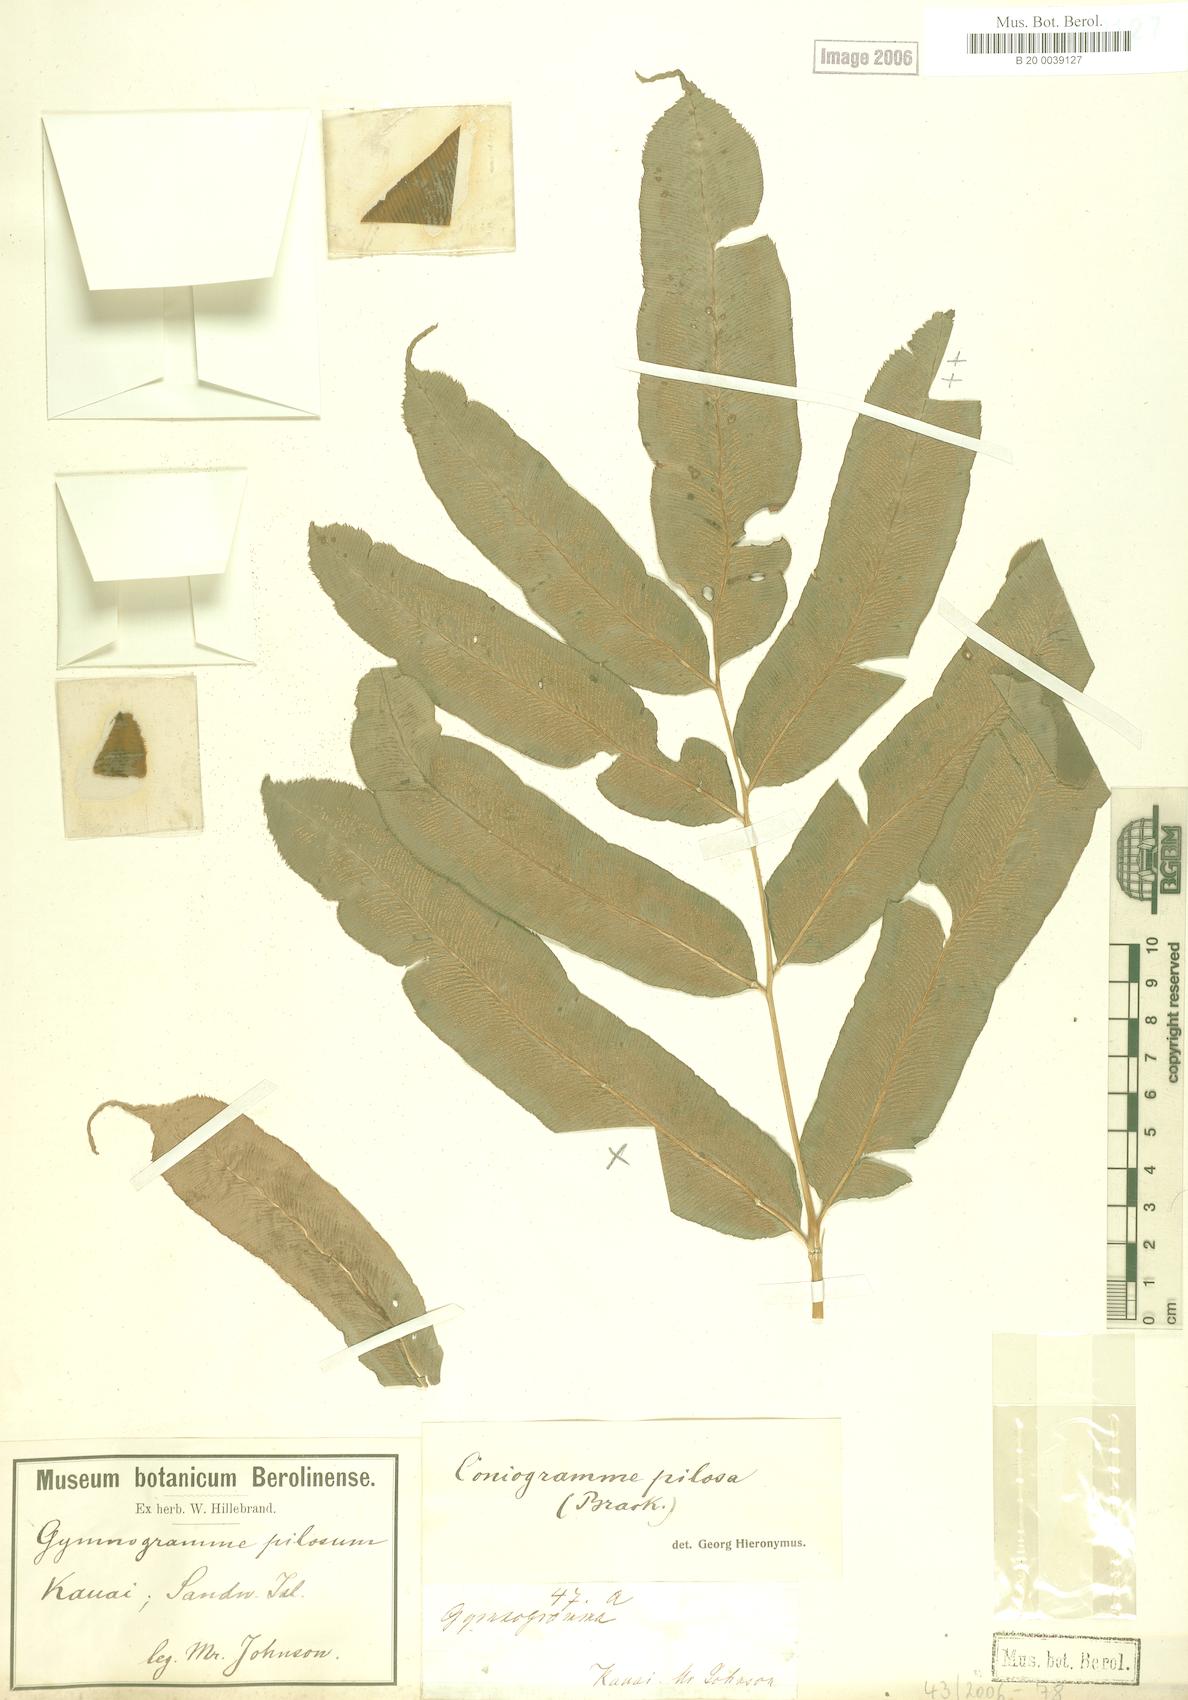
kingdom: Plantae
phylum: Tracheophyta
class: Polypodiopsida
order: Polypodiales
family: Pteridaceae
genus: Coniogramme
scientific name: Coniogramme pilosa
